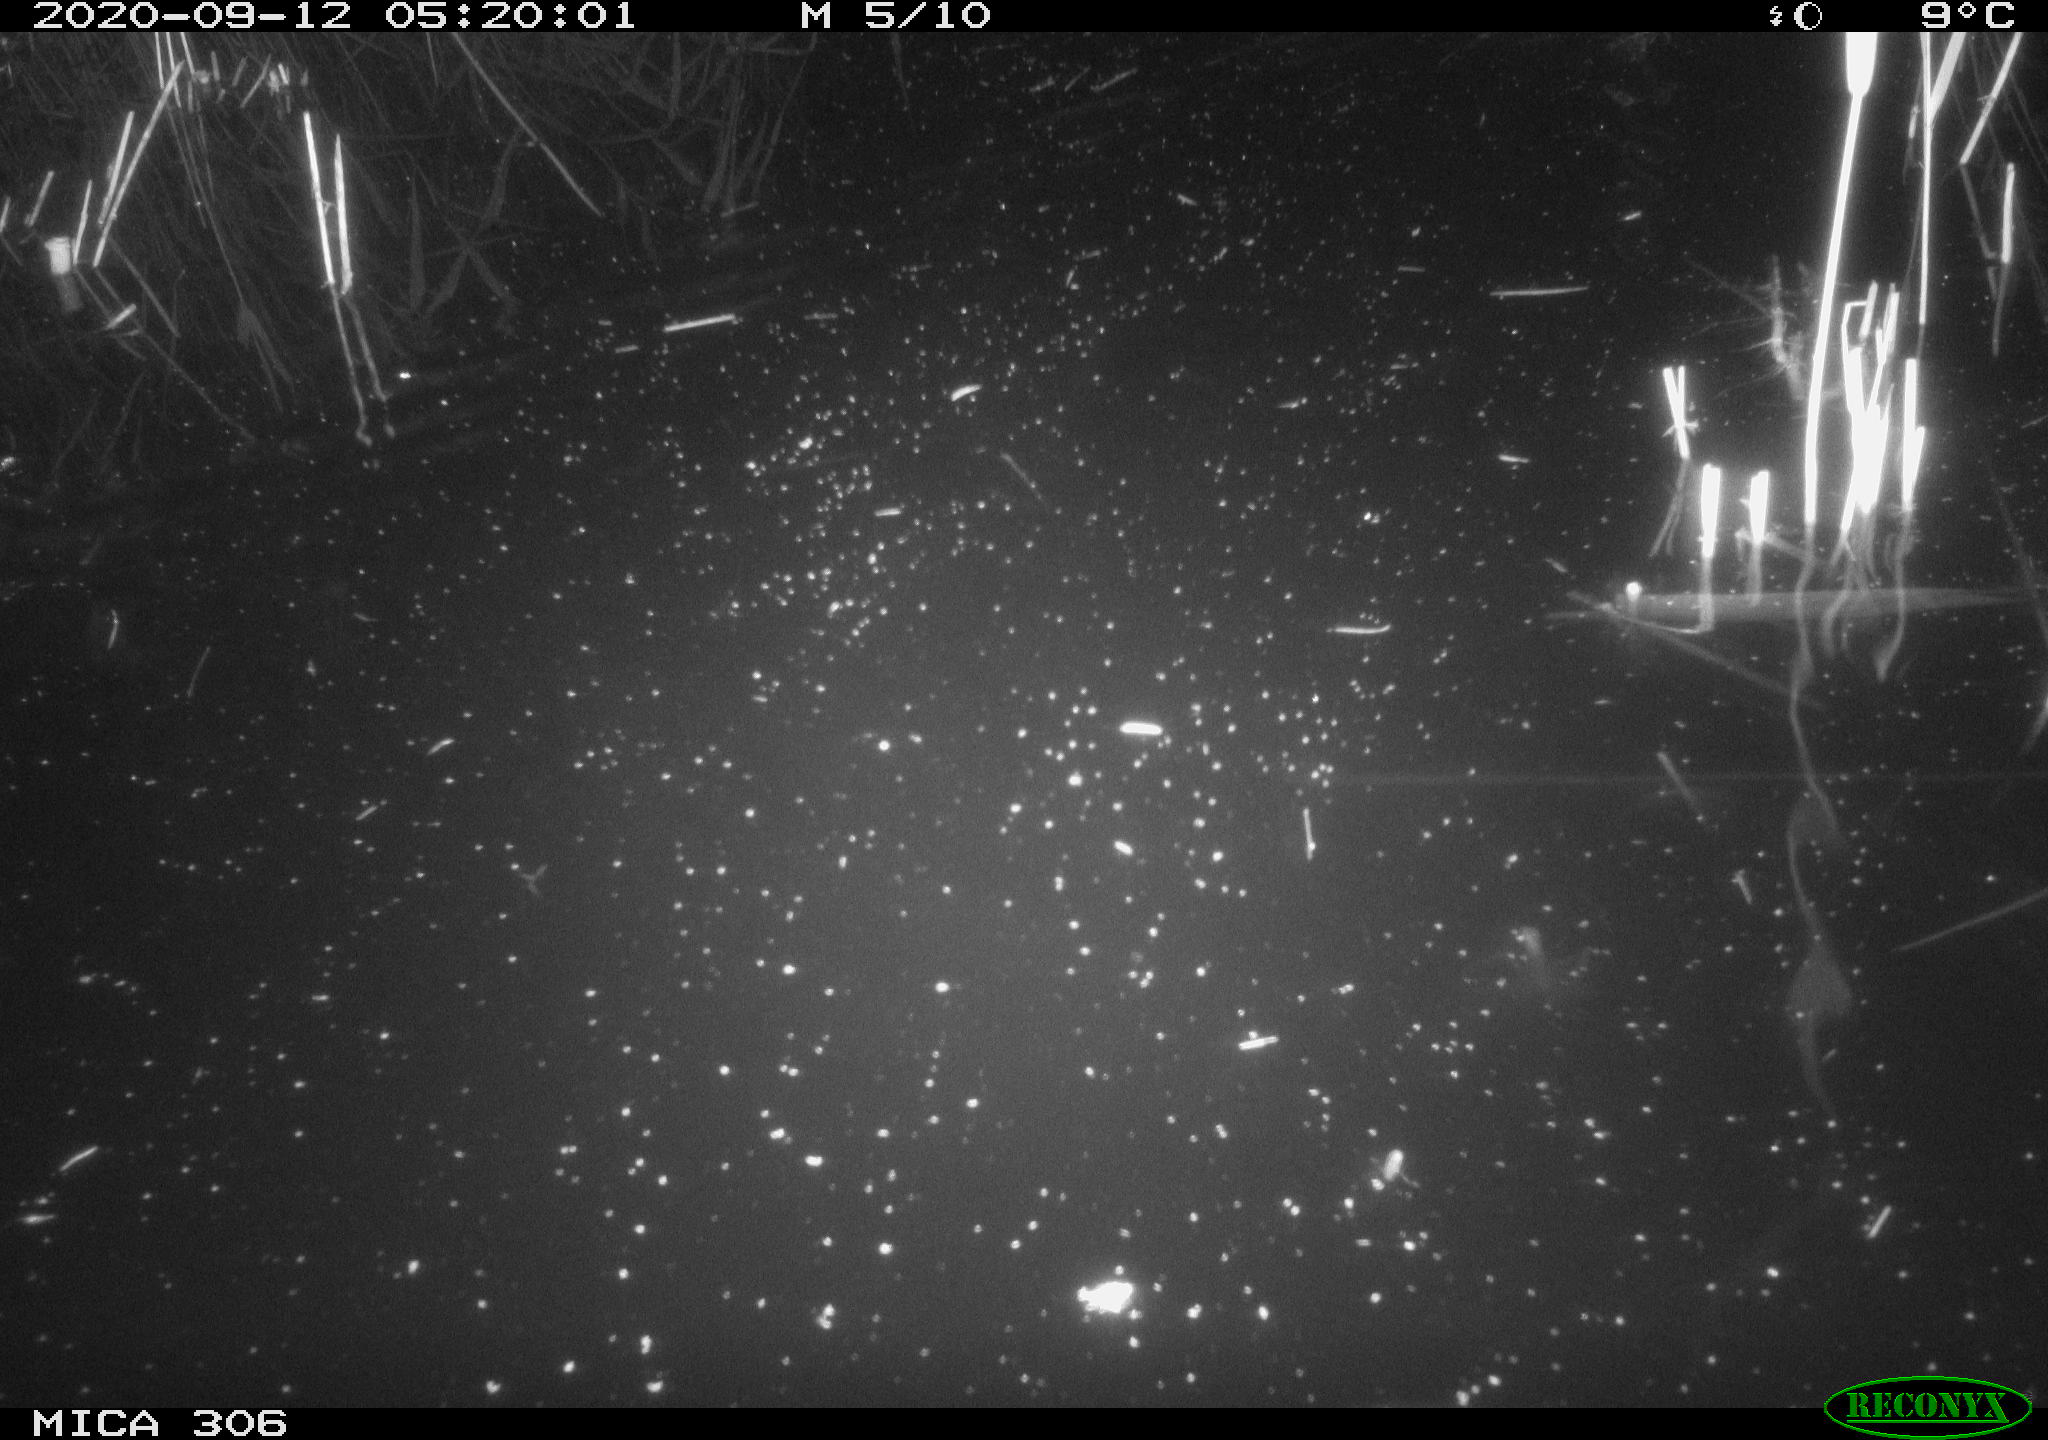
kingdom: Animalia
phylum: Chordata
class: Mammalia
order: Rodentia
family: Muridae
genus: Rattus
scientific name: Rattus norvegicus
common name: Brown rat
